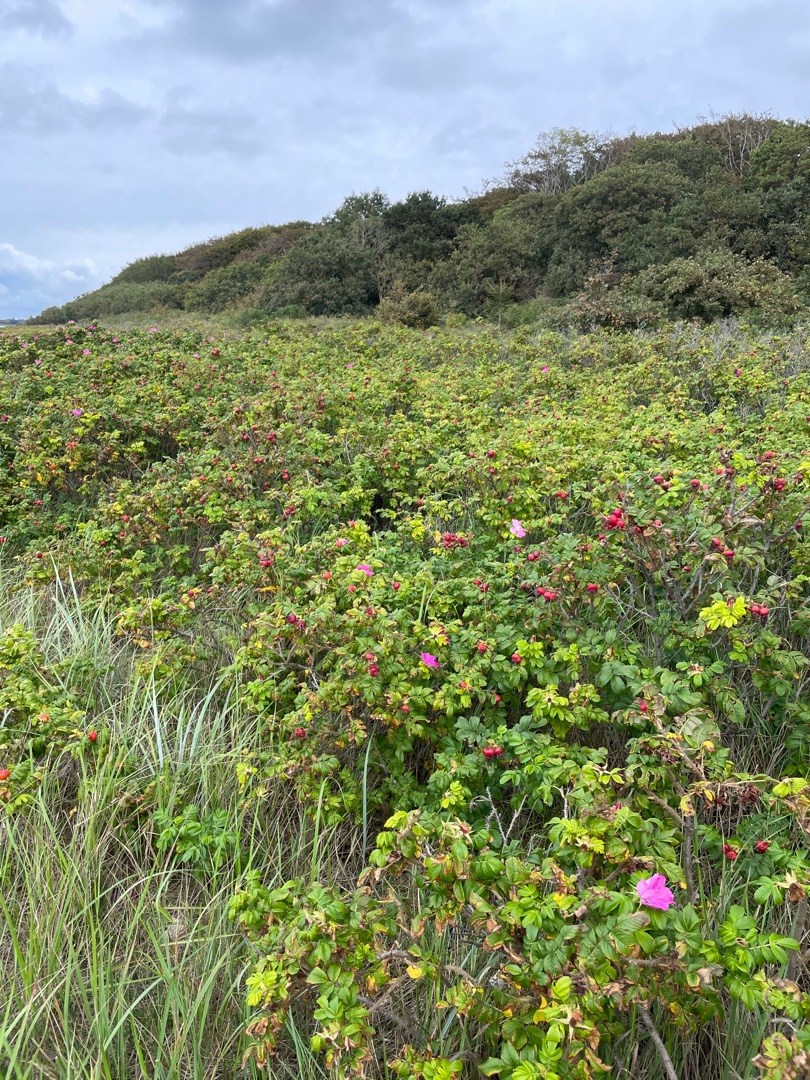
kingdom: Plantae
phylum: Tracheophyta
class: Magnoliopsida
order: Rosales
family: Rosaceae
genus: Rosa
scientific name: Rosa rugosa
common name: Rynket rose
